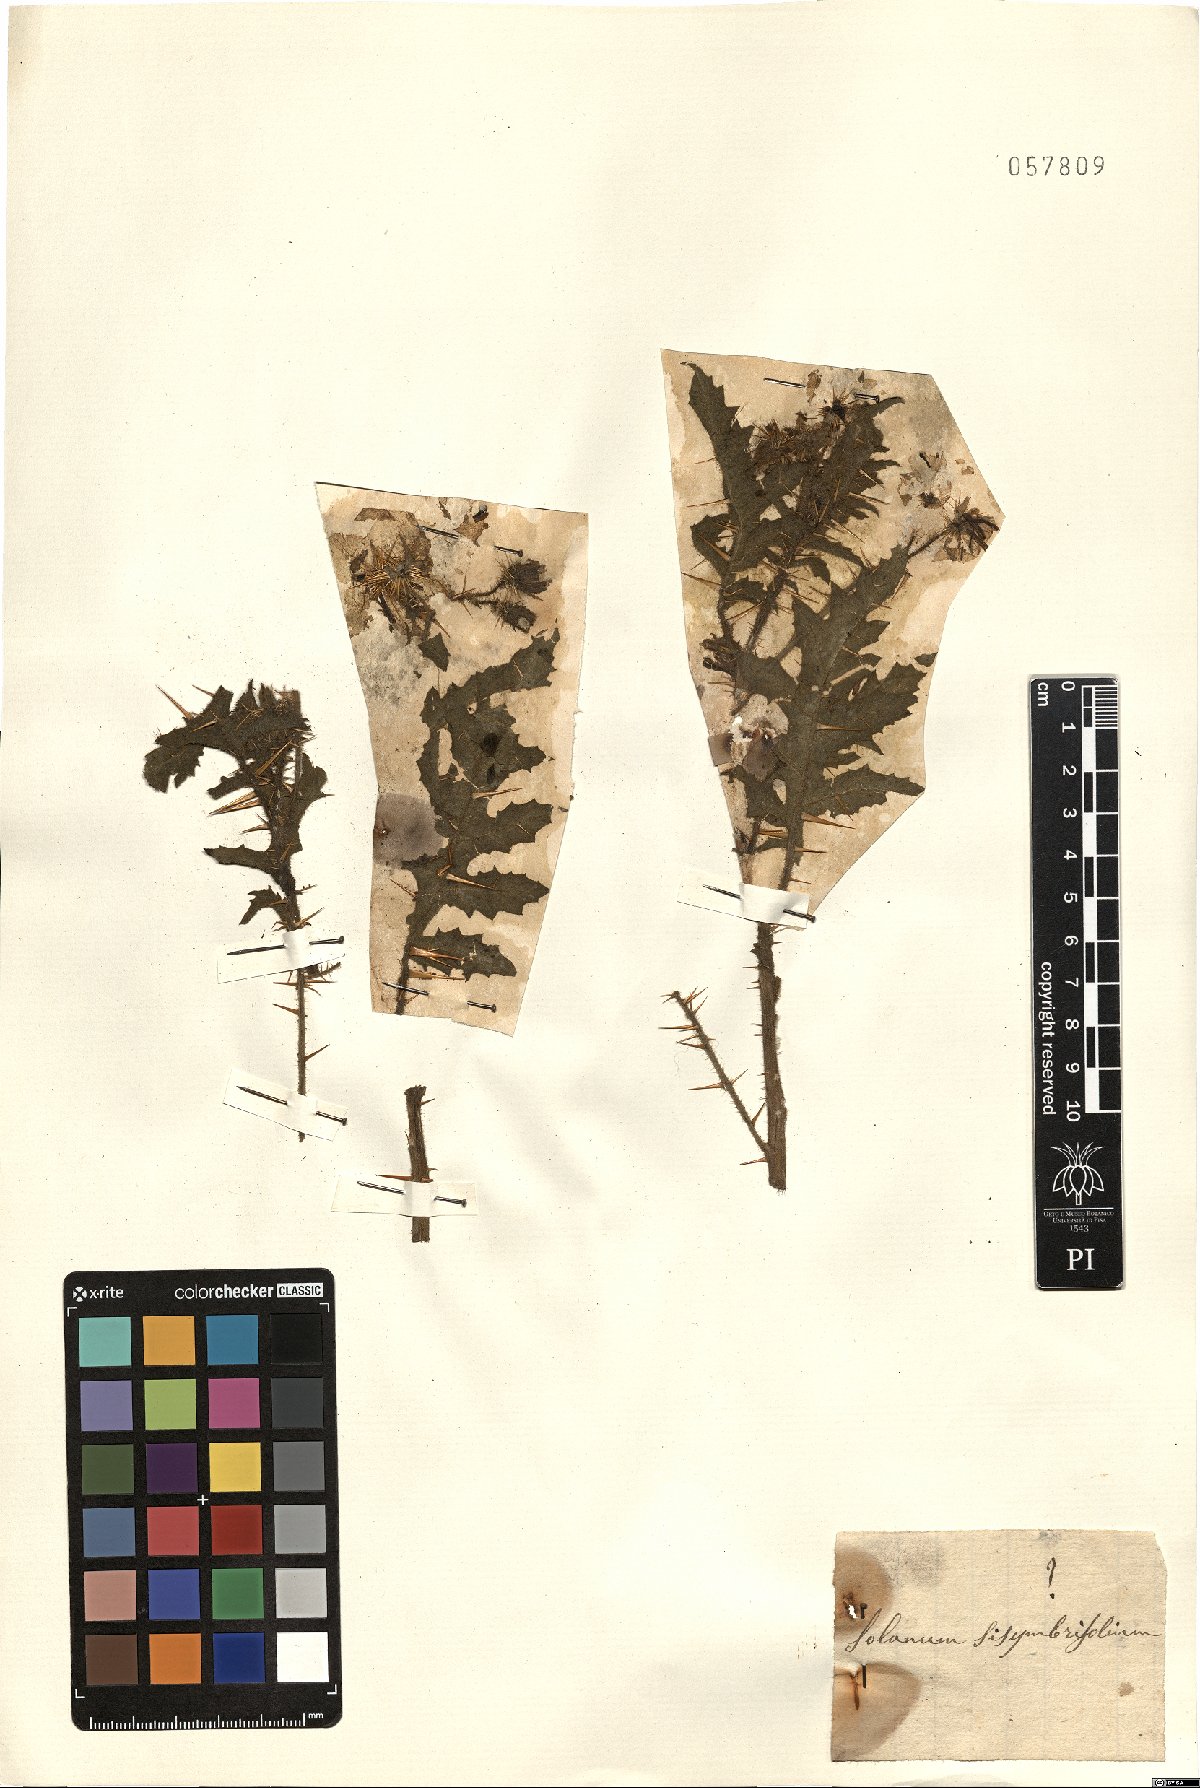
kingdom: Plantae
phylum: Tracheophyta
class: Magnoliopsida
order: Solanales
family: Solanaceae
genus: Solanum
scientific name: Solanum sisymbriifolium
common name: Red buffalo-bur
